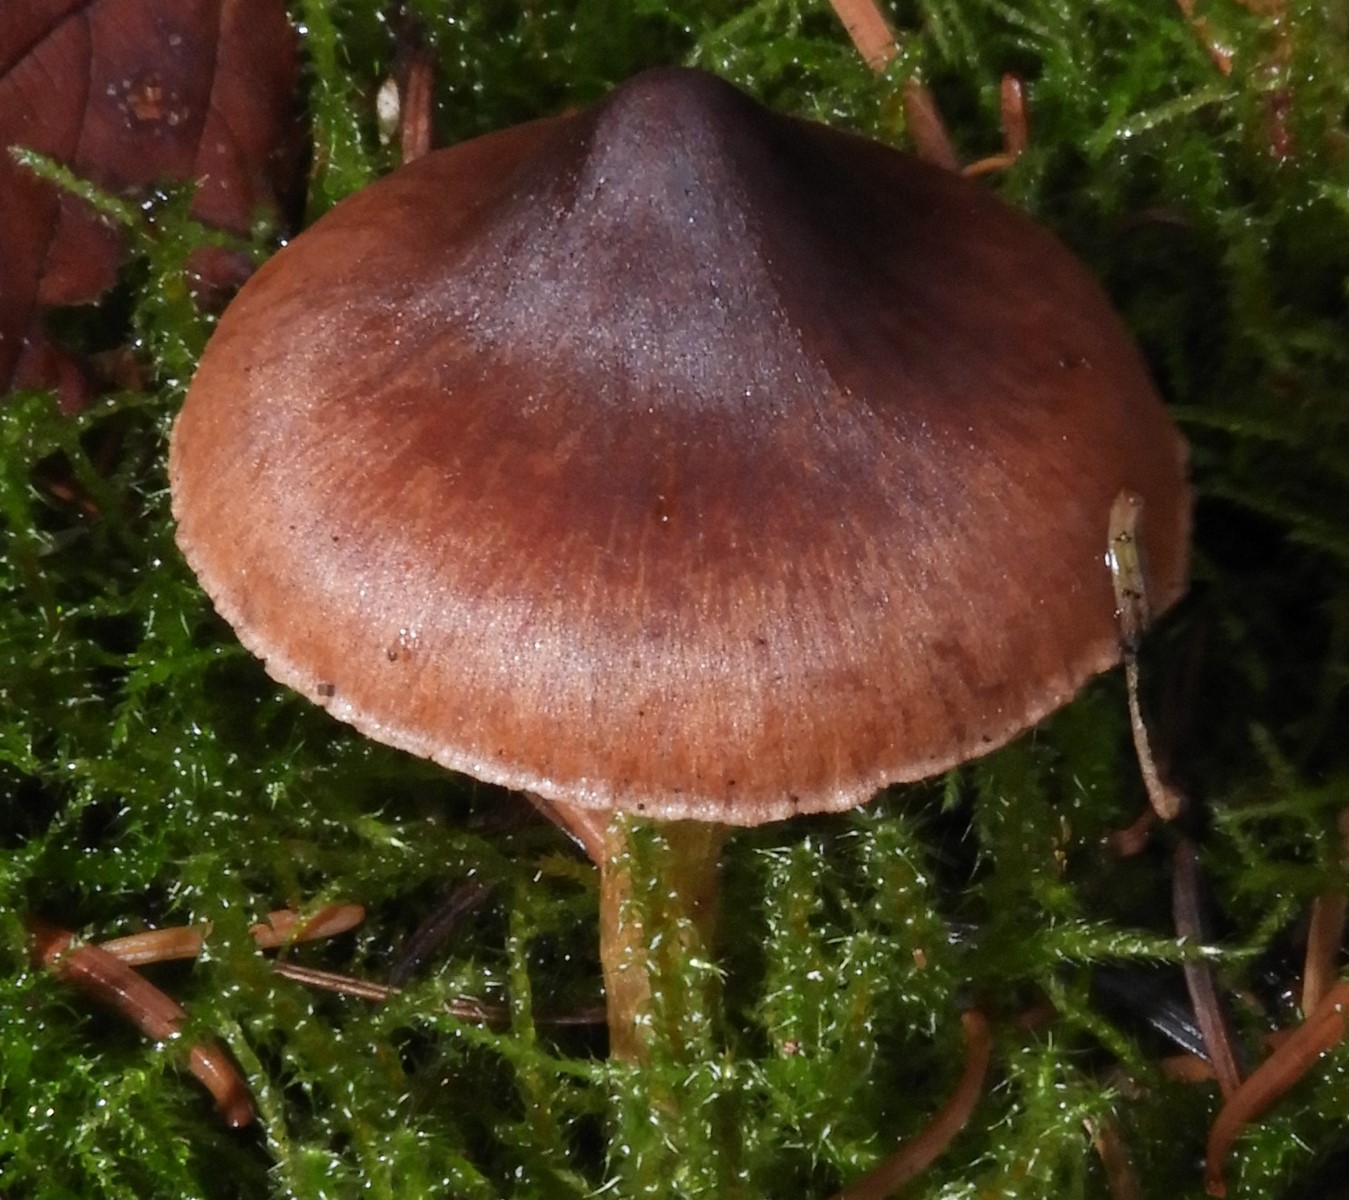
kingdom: Fungi
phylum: Basidiomycota
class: Agaricomycetes
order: Agaricales
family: Cortinariaceae
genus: Cortinarius
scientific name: Cortinarius
